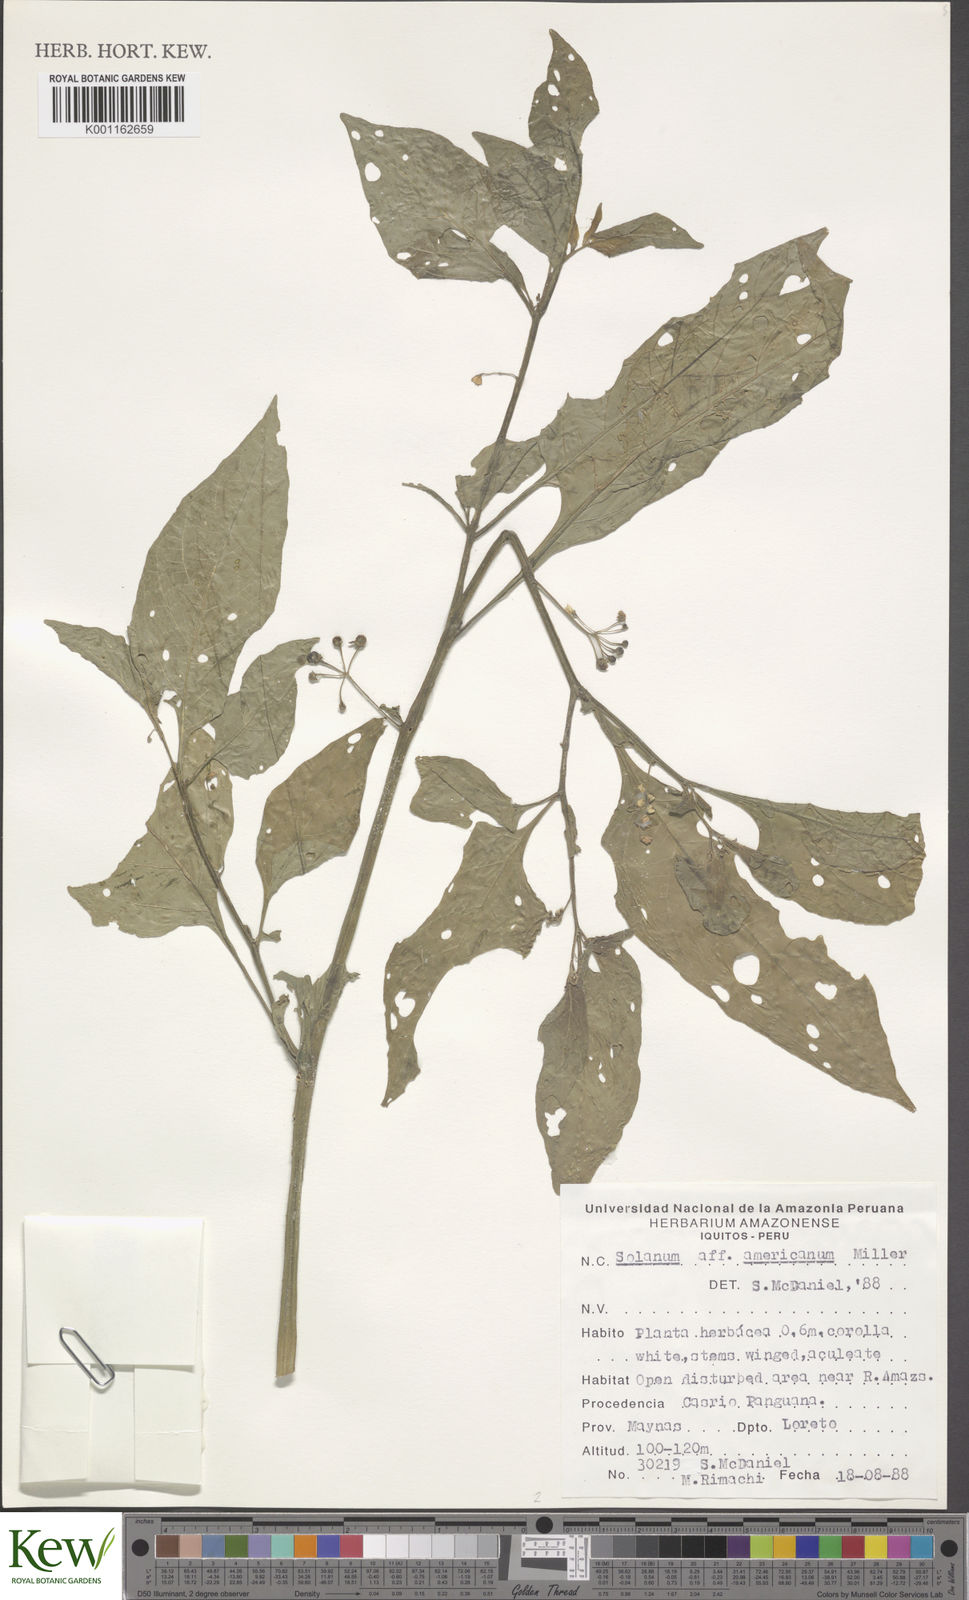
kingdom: Plantae
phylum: Tracheophyta
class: Magnoliopsida
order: Solanales
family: Solanaceae
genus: Solanum
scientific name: Solanum americanum
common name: American black nightshade
